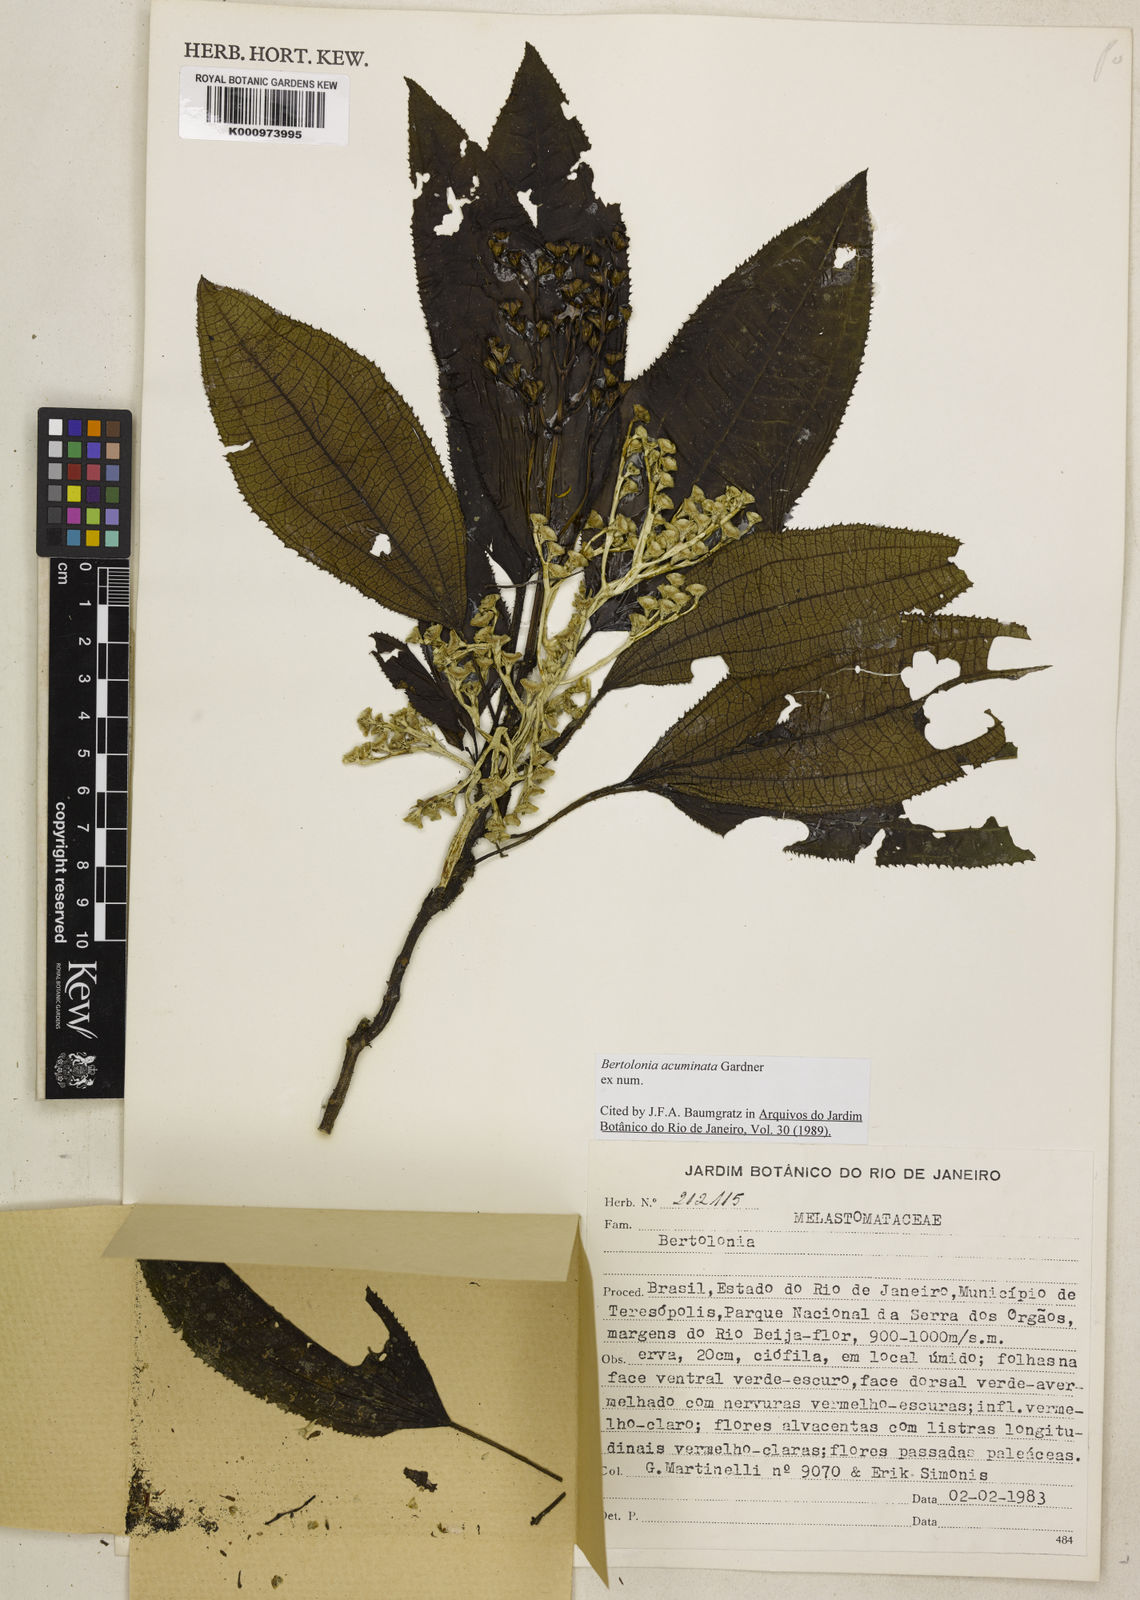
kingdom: Plantae
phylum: Tracheophyta
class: Magnoliopsida
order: Myrtales
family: Melastomataceae
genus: Bertolonia
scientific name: Bertolonia acuminata
